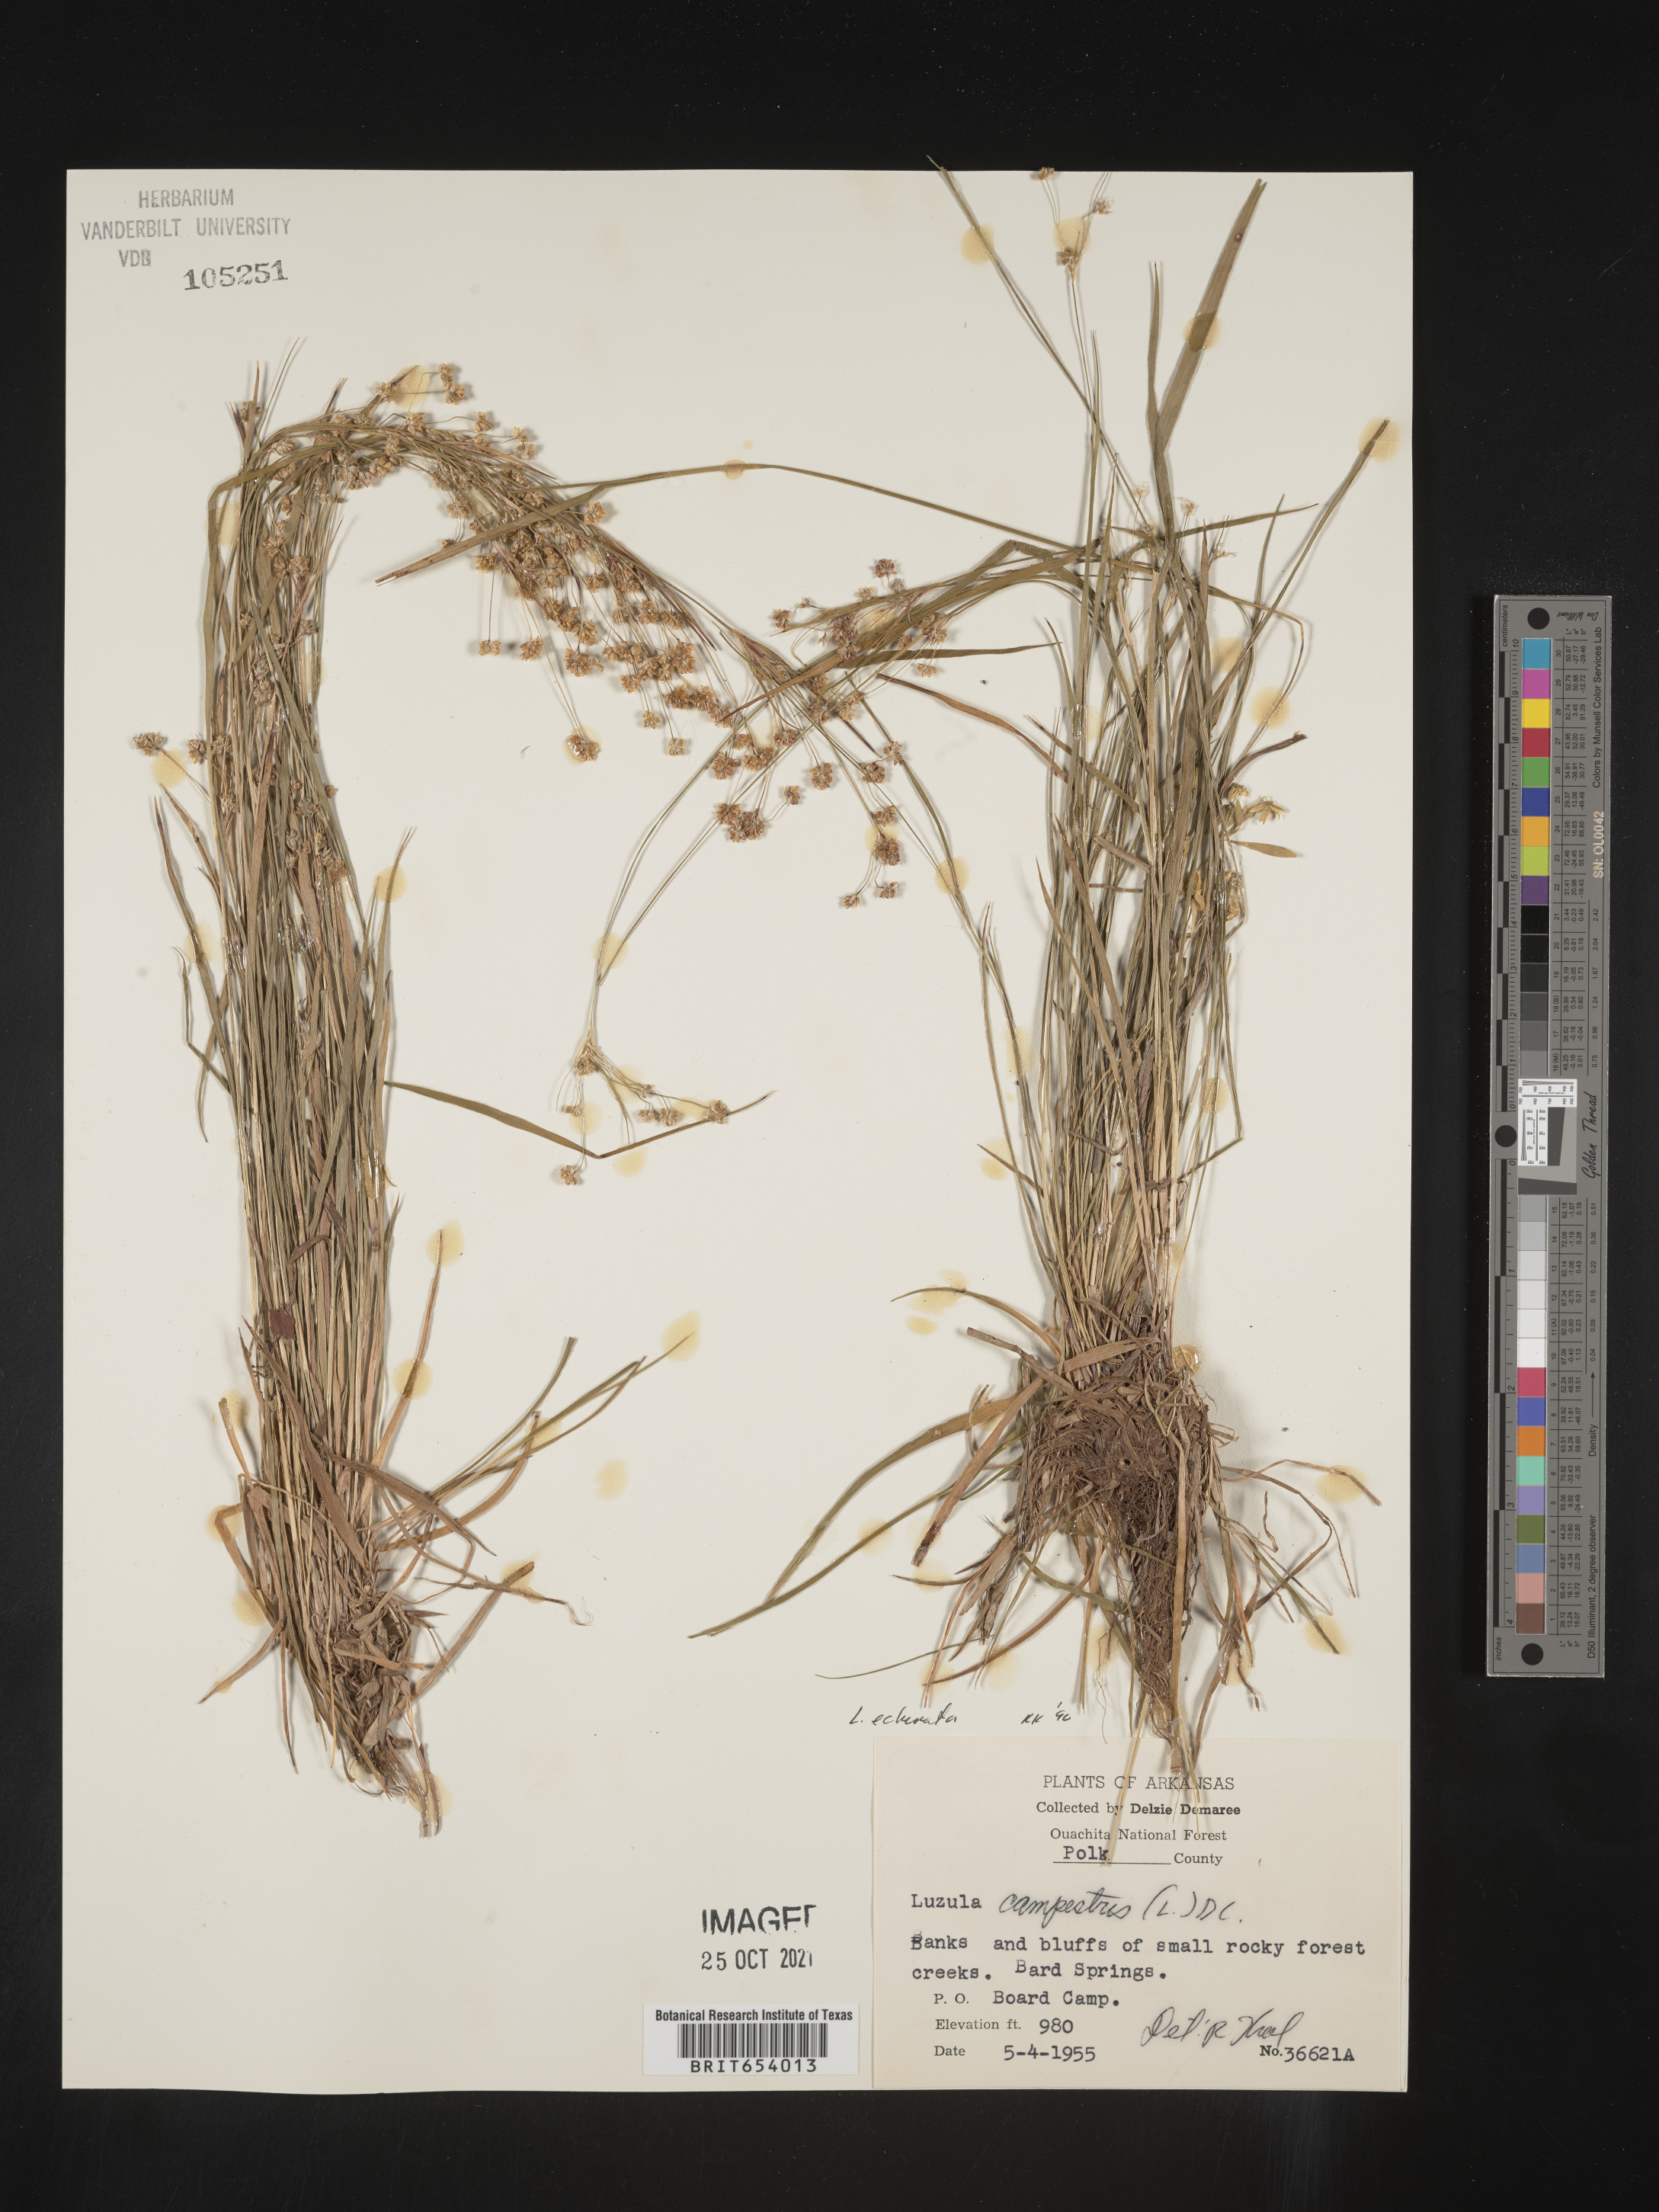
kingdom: Plantae
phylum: Tracheophyta
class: Liliopsida
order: Poales
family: Juncaceae
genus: Luzula
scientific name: Luzula echinata
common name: Hedgehog woodrush
